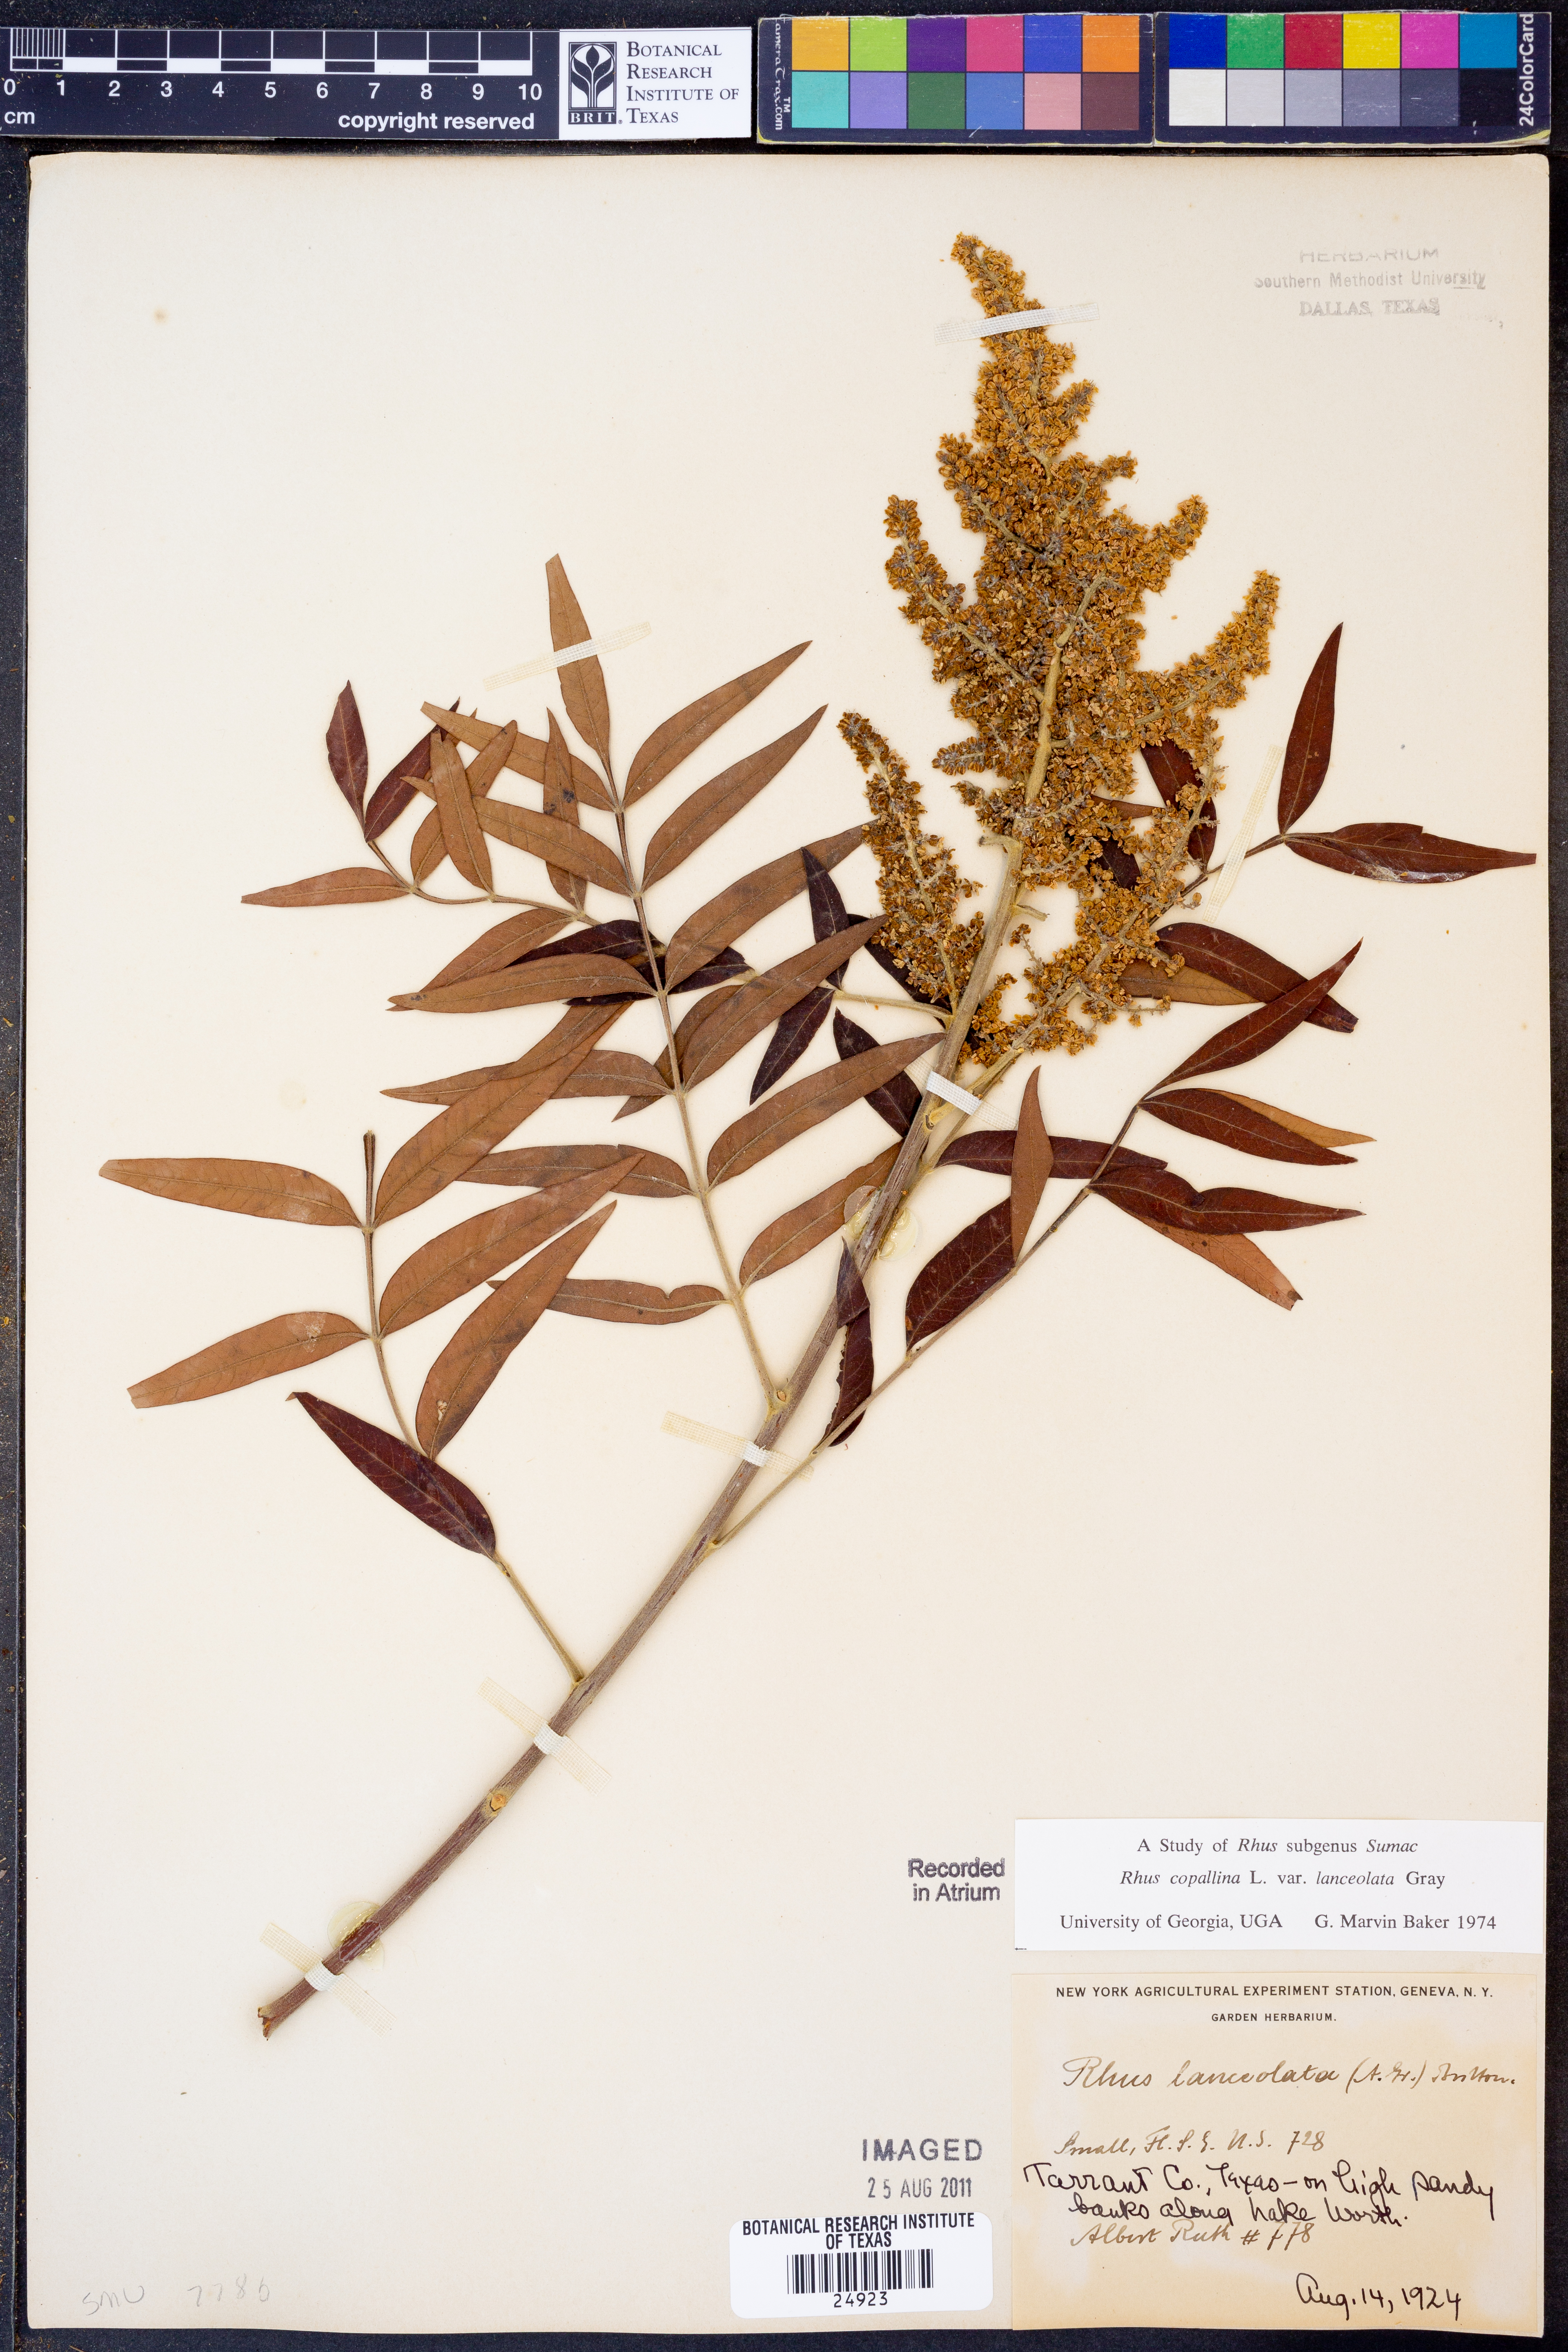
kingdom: Plantae
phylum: Tracheophyta
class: Magnoliopsida
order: Sapindales
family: Anacardiaceae
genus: Rhus
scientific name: Rhus lanceolata
